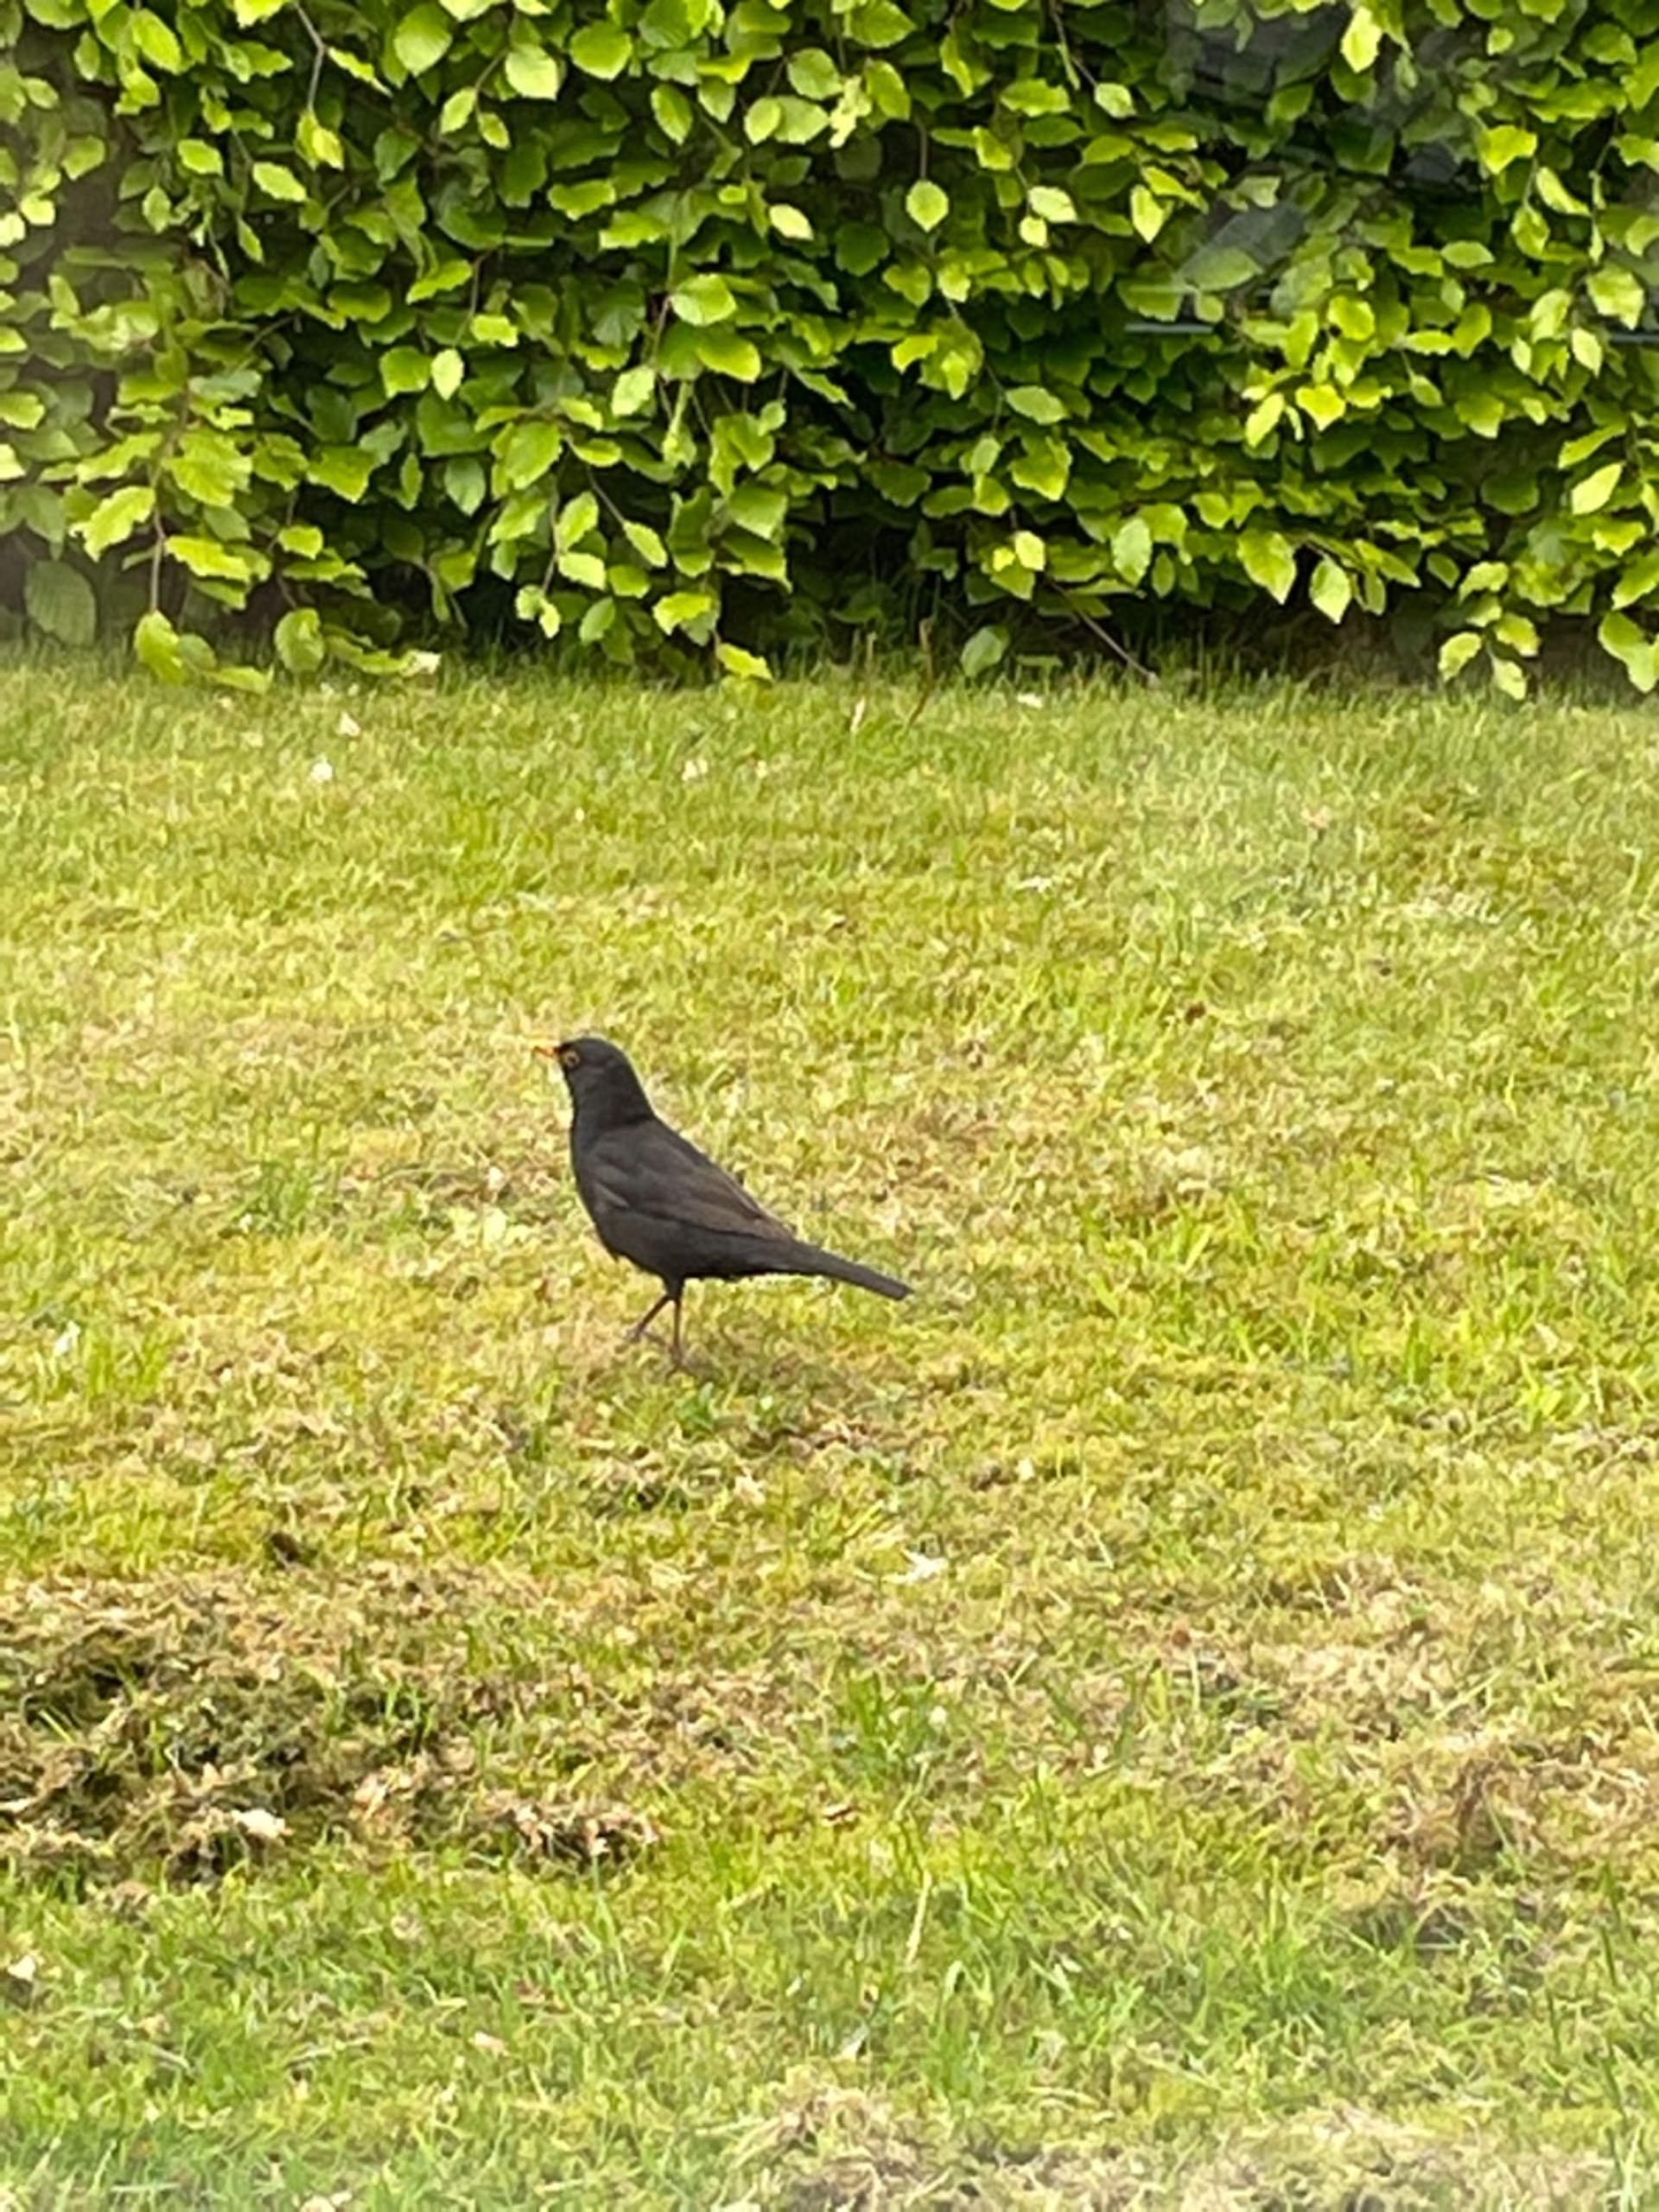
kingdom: Animalia
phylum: Chordata
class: Aves
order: Passeriformes
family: Turdidae
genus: Turdus
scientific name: Turdus merula
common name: Solsort
